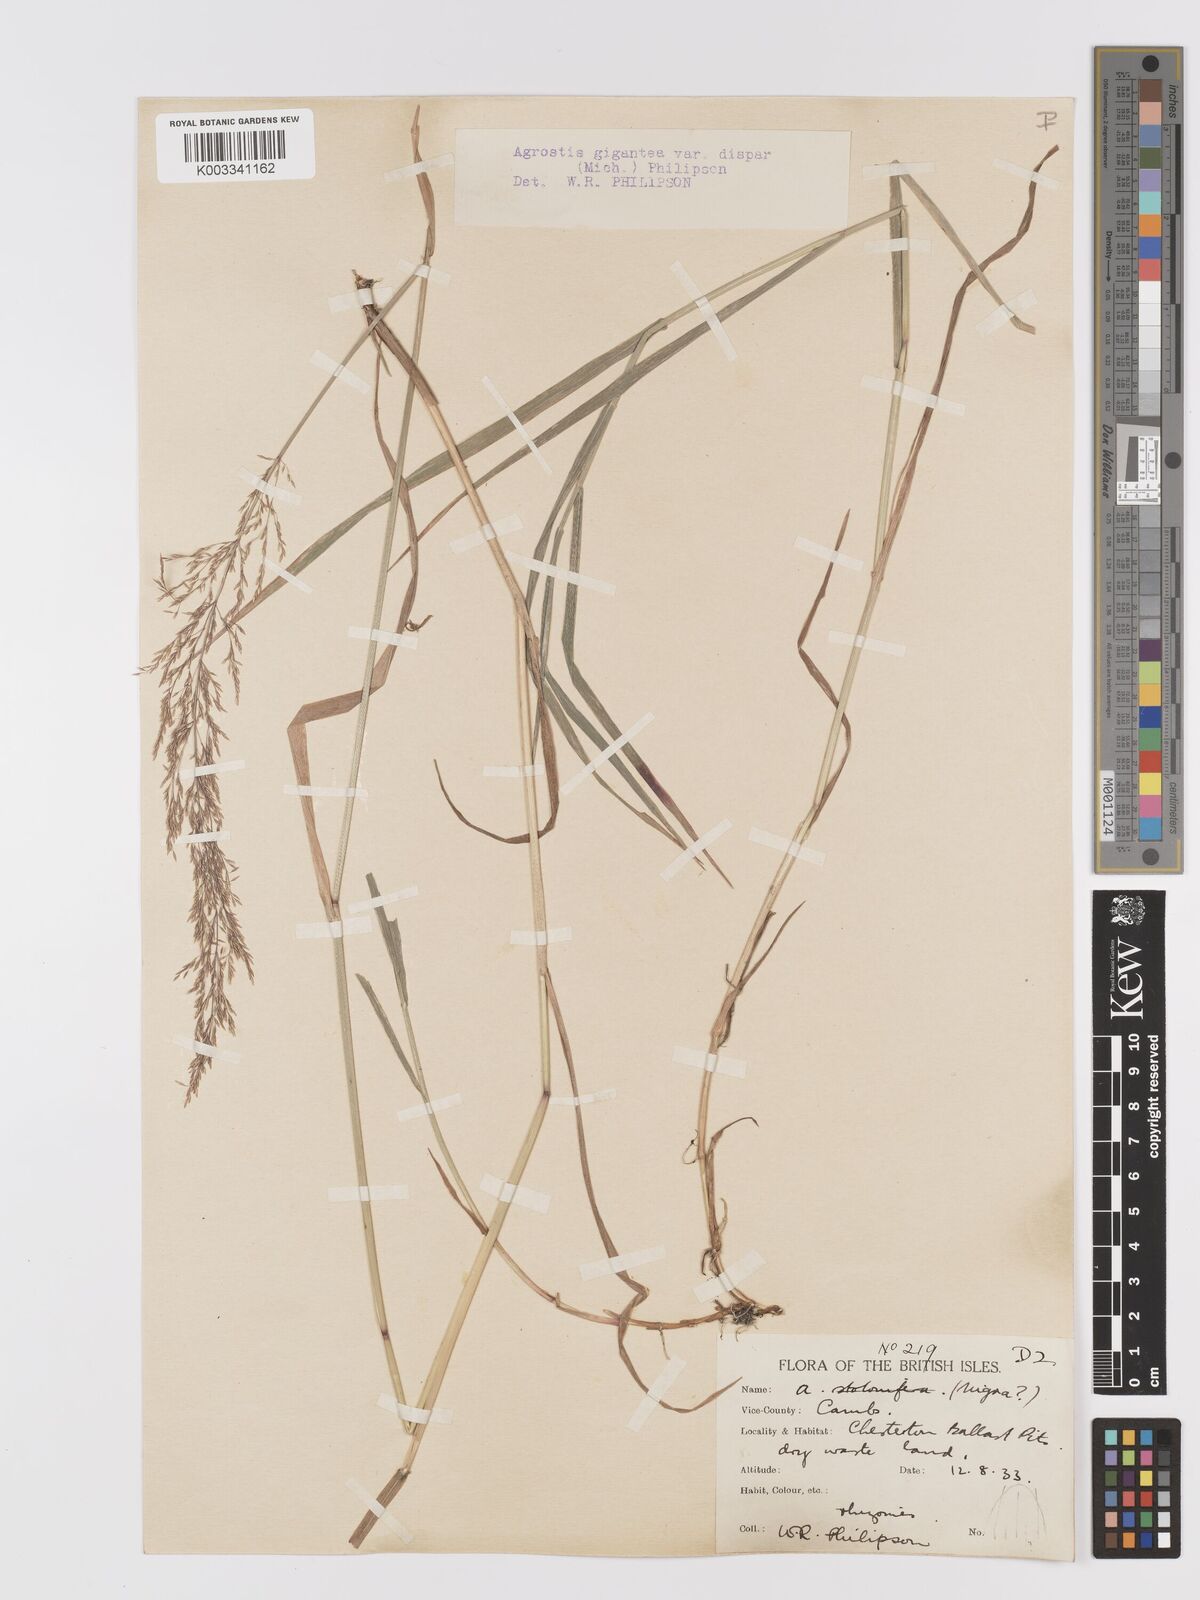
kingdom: Plantae
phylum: Tracheophyta
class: Liliopsida
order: Poales
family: Poaceae
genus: Agrostis
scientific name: Agrostis gigantea
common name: Black bent
